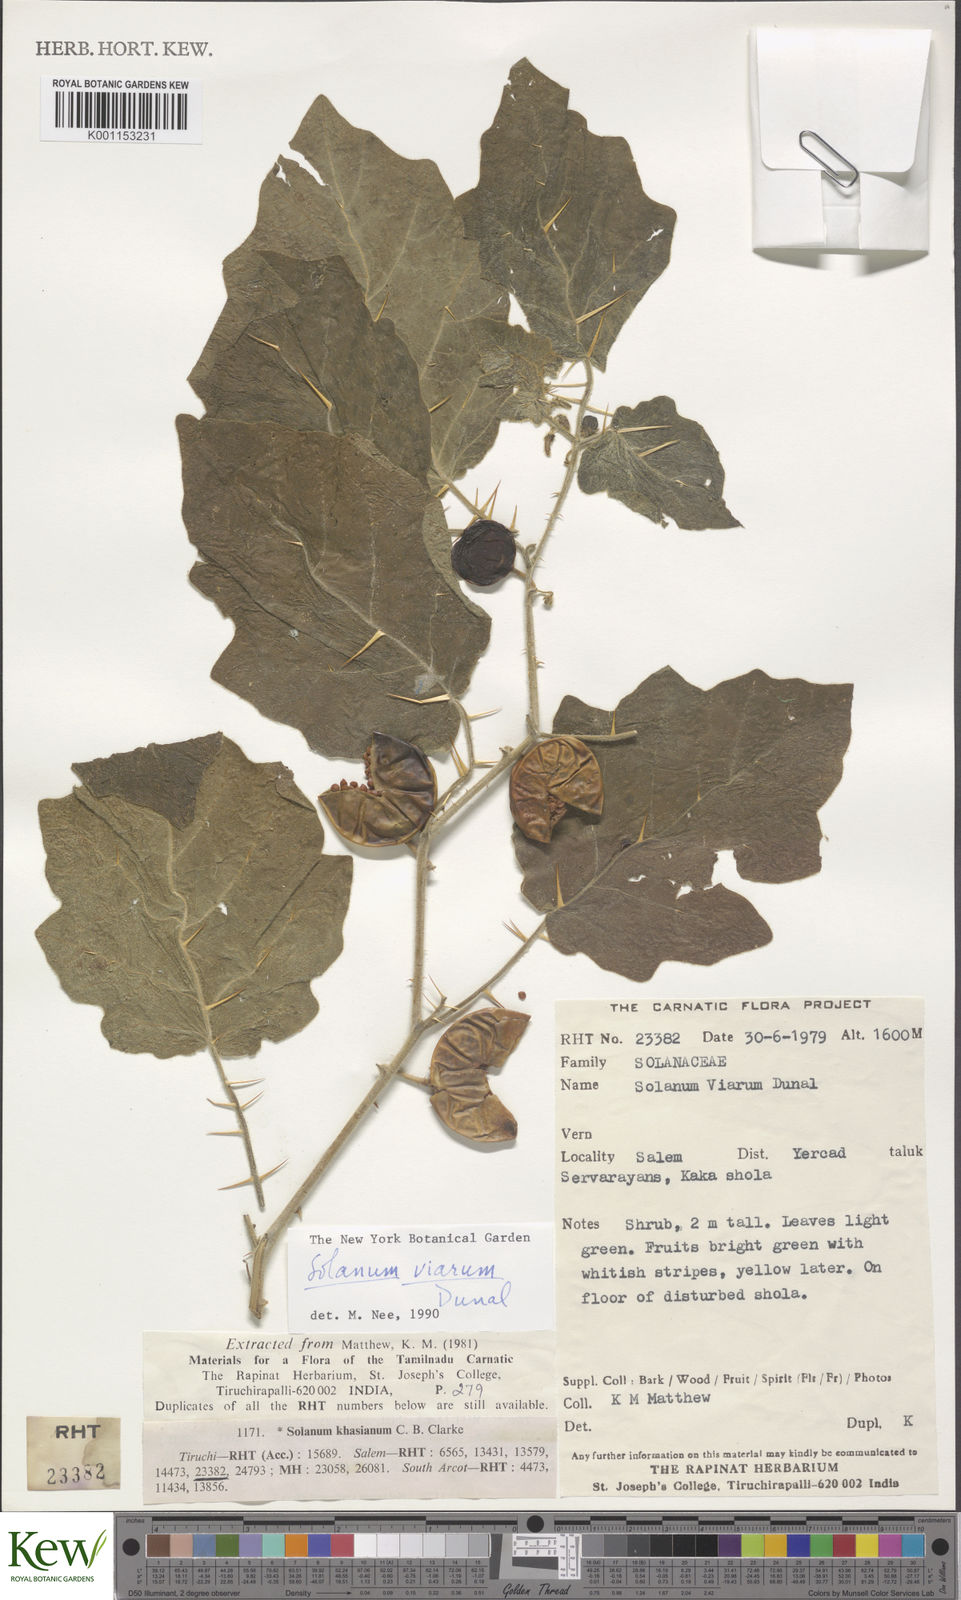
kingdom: Plantae
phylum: Tracheophyta
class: Magnoliopsida
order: Solanales
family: Solanaceae
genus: Solanum
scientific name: Solanum viarum
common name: Tropical soda apple
